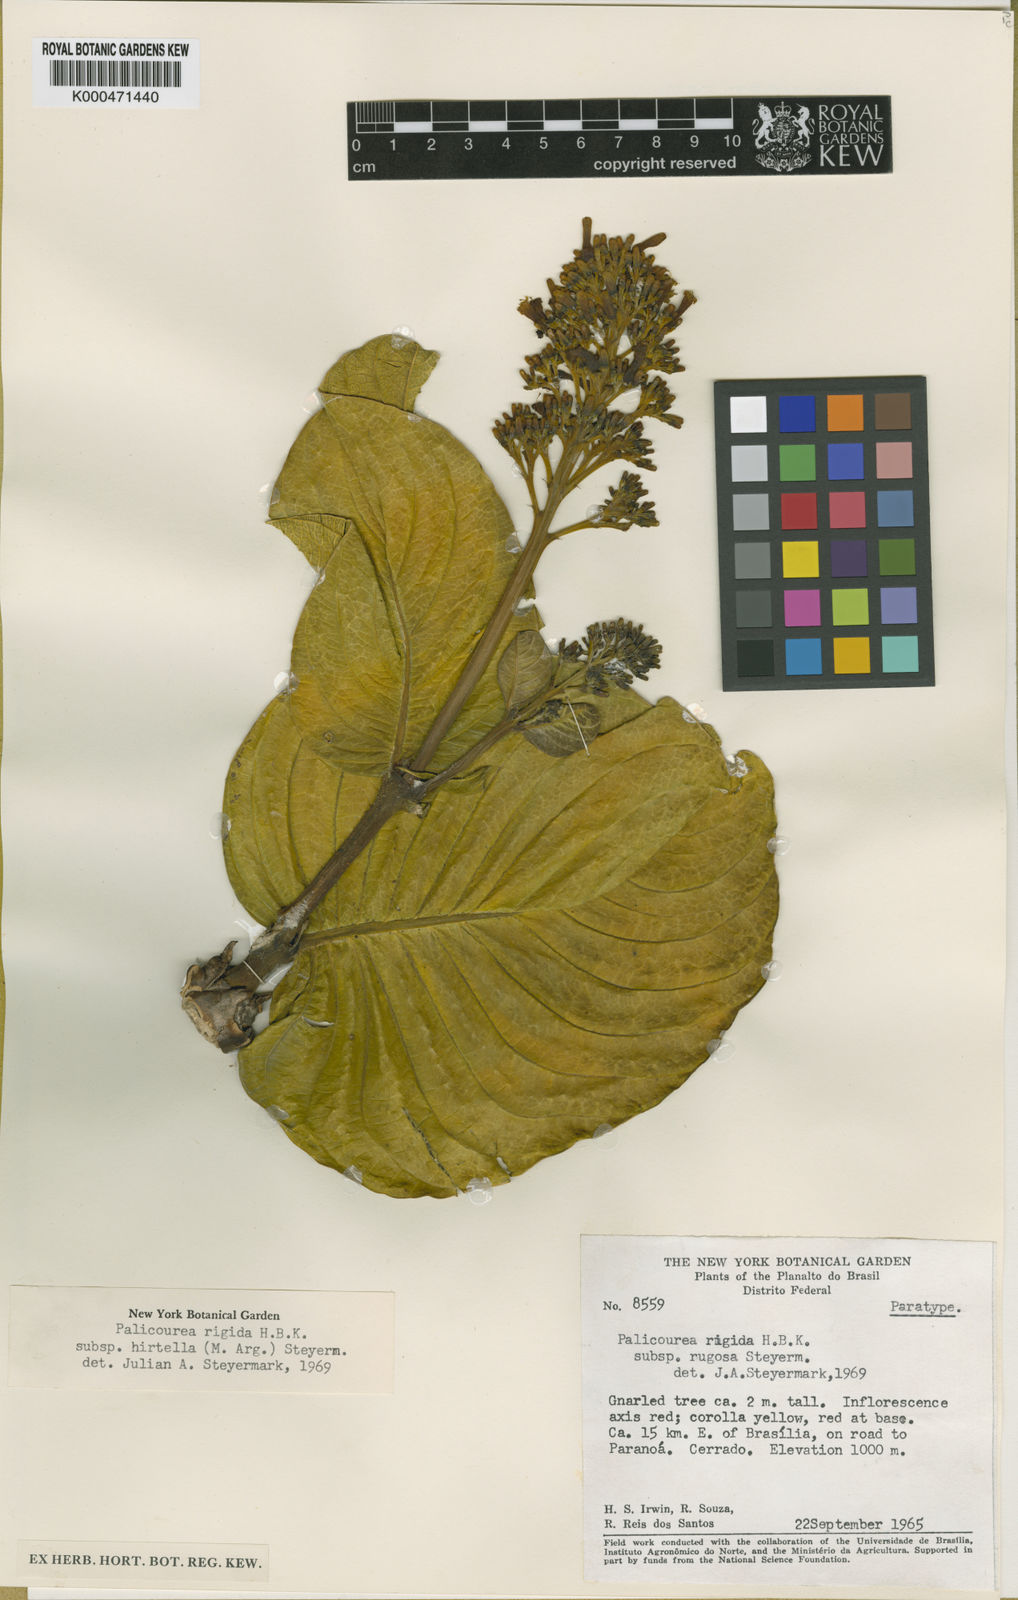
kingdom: Plantae
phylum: Tracheophyta
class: Magnoliopsida
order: Gentianales
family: Rubiaceae
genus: Palicourea
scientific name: Palicourea rigida
